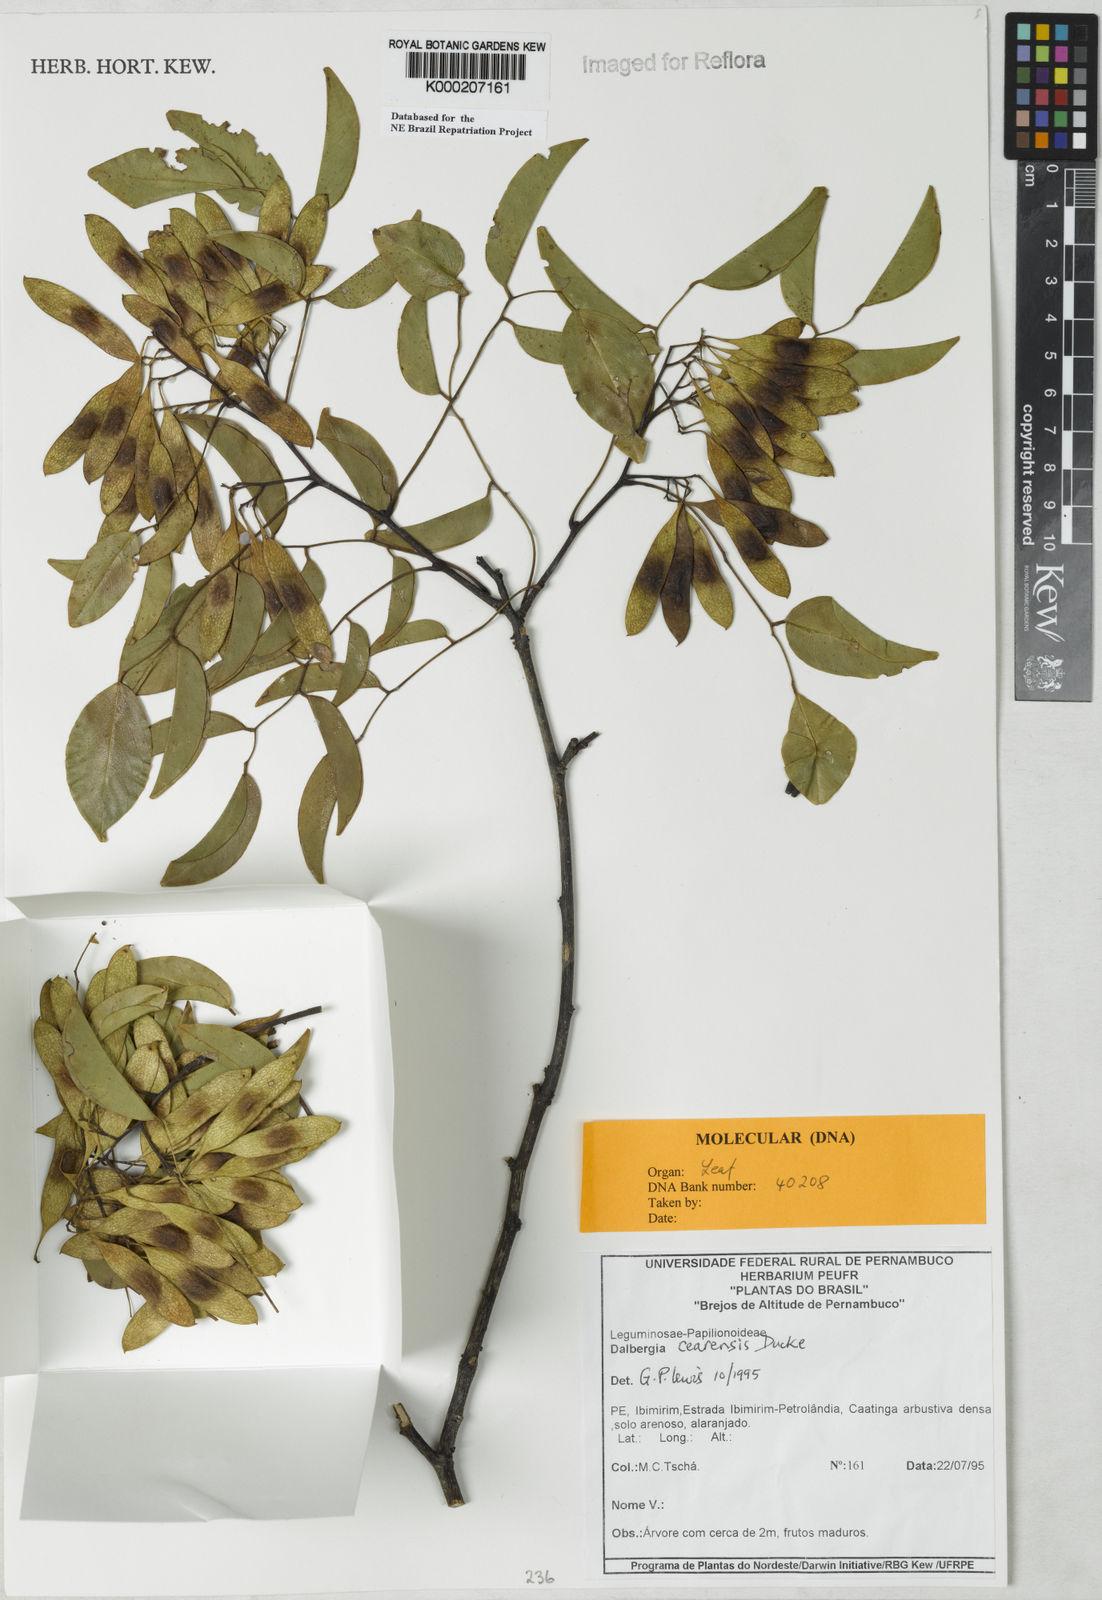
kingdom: Plantae
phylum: Tracheophyta
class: Magnoliopsida
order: Fabales
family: Fabaceae
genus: Dalbergia
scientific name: Dalbergia cearensis
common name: Brazilian-king-wood
